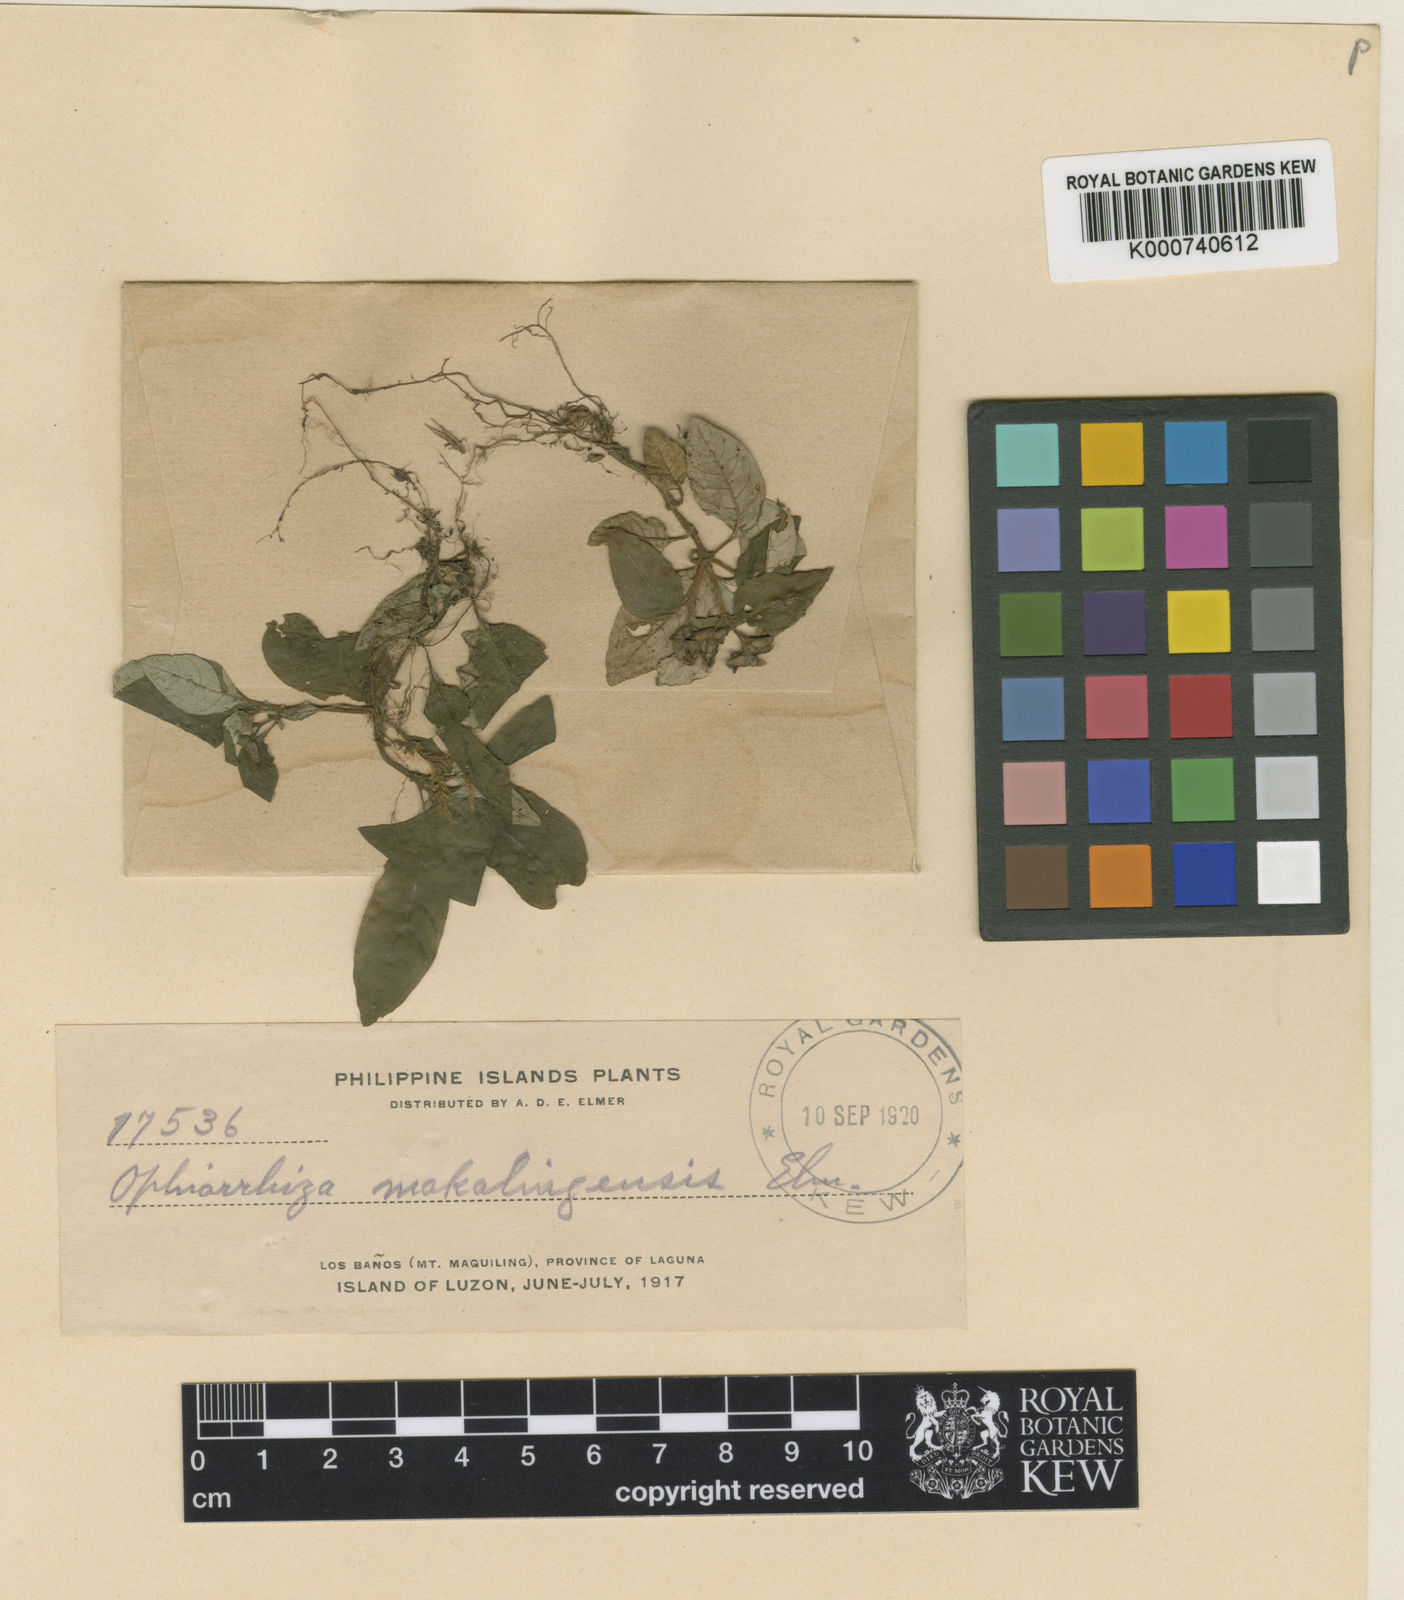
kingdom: Plantae
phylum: Tracheophyta
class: Magnoliopsida
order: Gentianales
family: Rubiaceae
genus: Ophiorrhiza
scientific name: Ophiorrhiza maquilingensis
